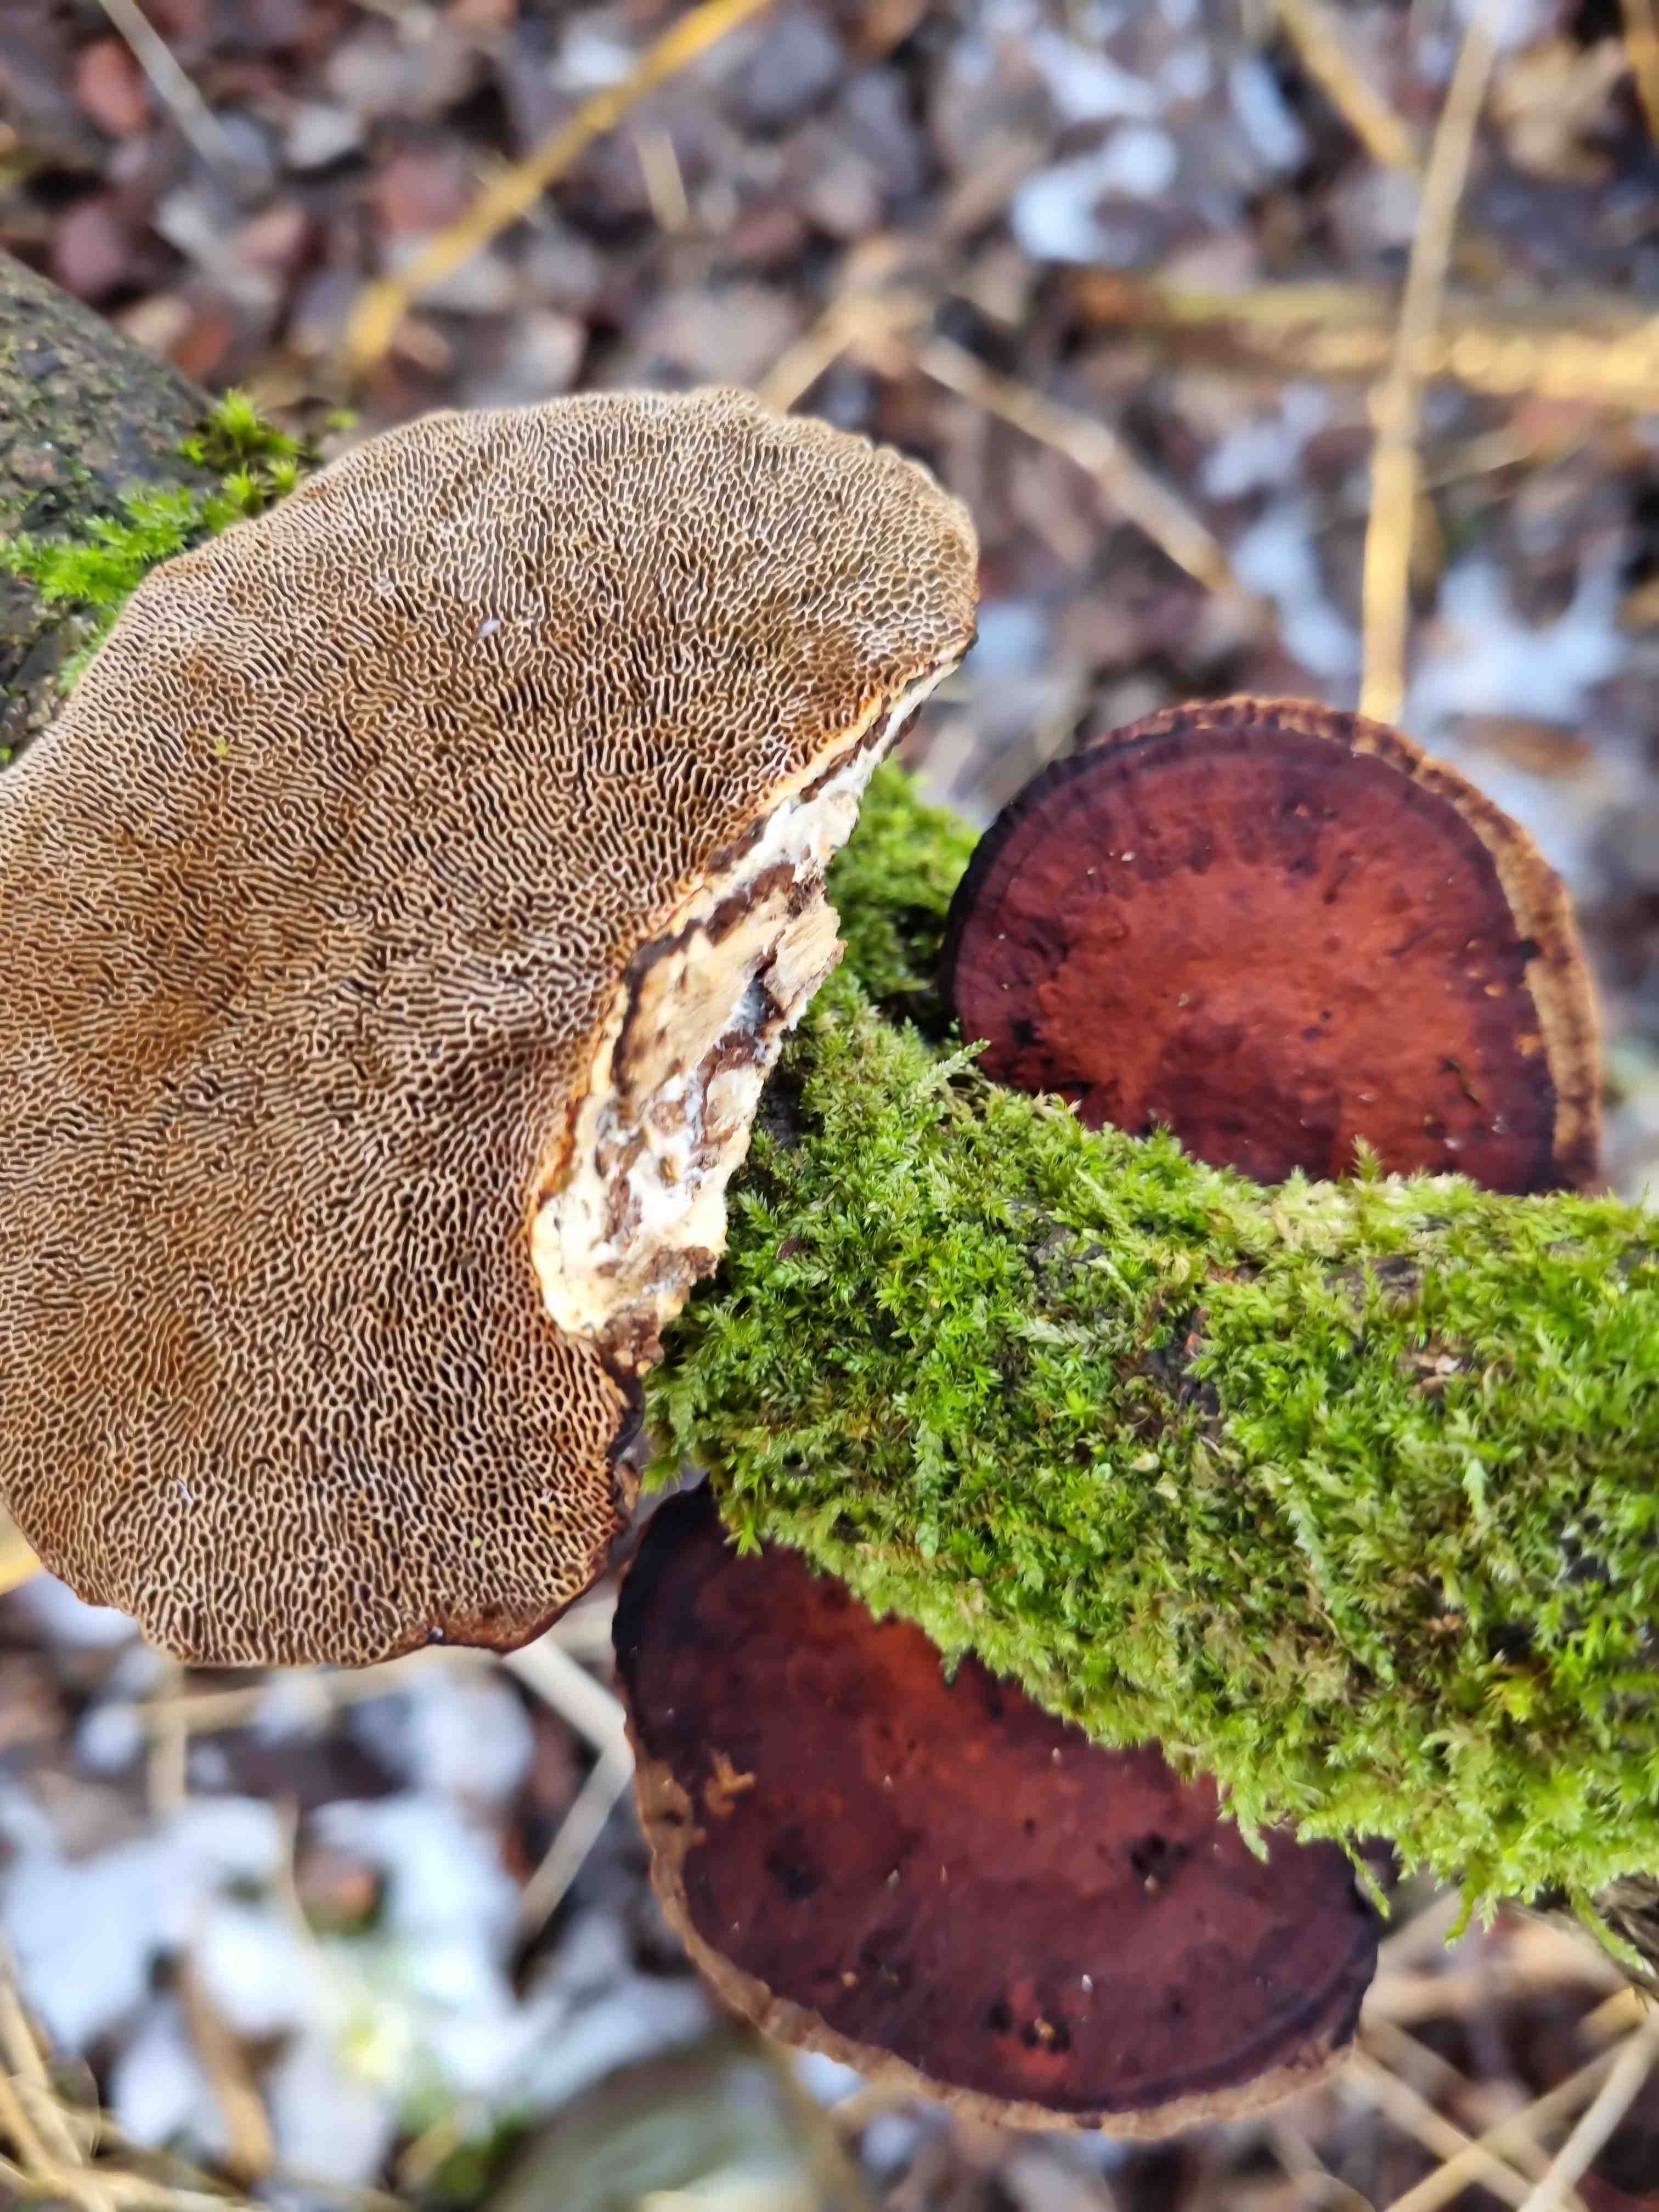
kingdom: Fungi
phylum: Basidiomycota
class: Agaricomycetes
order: Polyporales
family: Polyporaceae
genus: Daedaleopsis
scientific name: Daedaleopsis confragosa
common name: rødmende læderporesvamp
